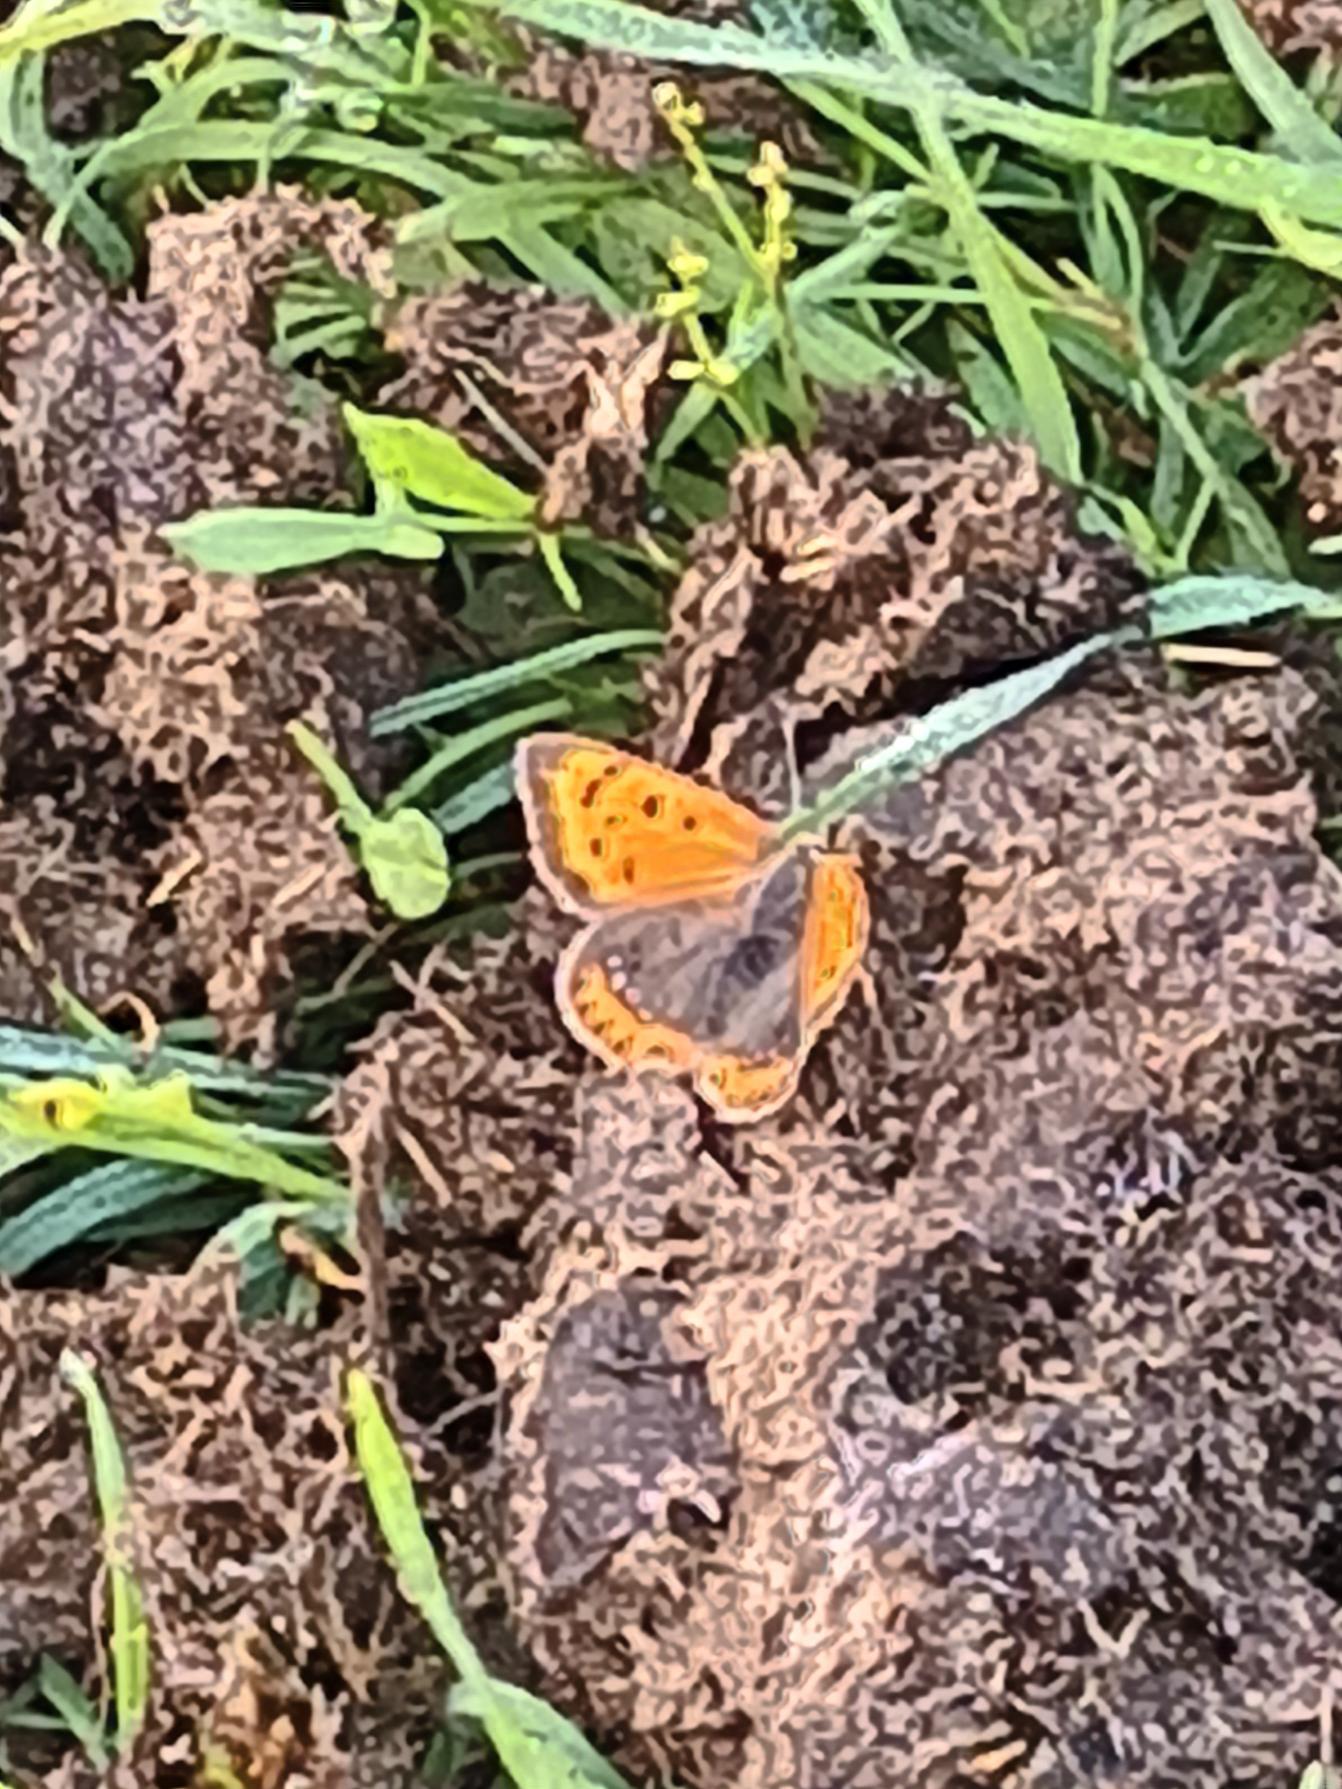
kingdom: Animalia
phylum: Arthropoda
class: Insecta
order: Lepidoptera
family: Lycaenidae
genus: Lycaena
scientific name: Lycaena phlaeas
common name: Lille ildfugl
